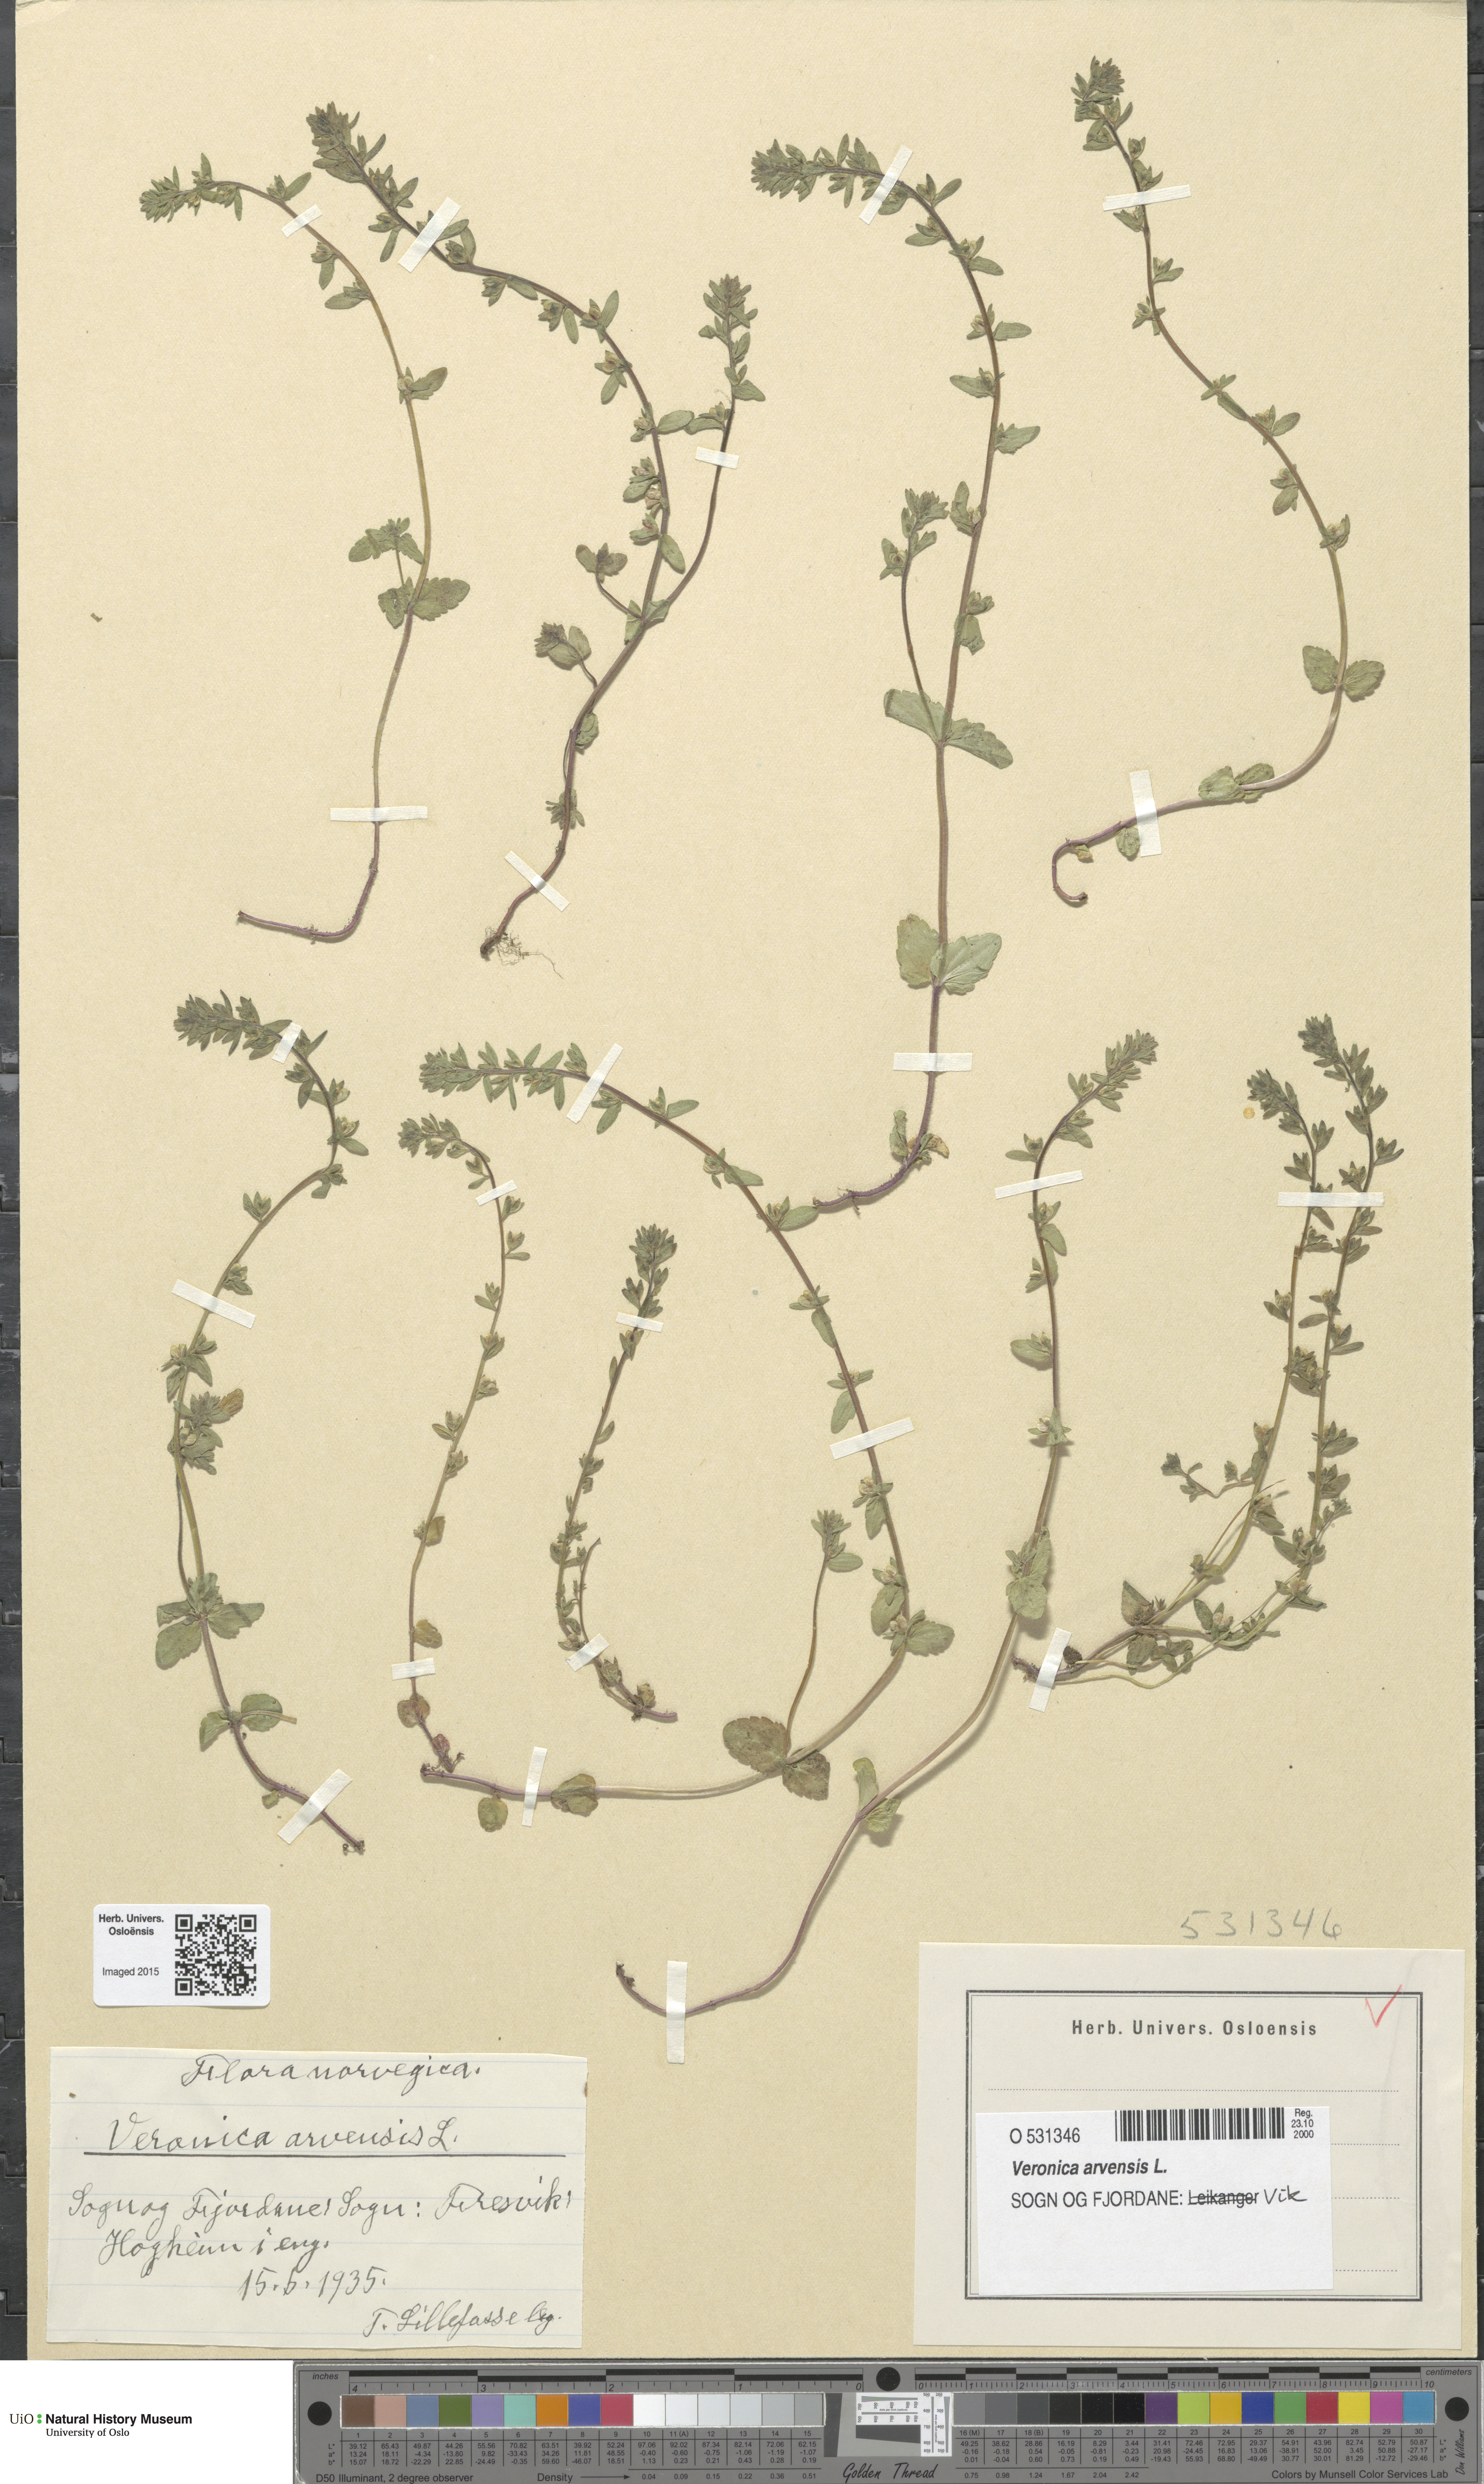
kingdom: Plantae
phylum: Tracheophyta
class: Magnoliopsida
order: Lamiales
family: Plantaginaceae
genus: Veronica
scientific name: Veronica arvensis
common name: Corn speedwell
